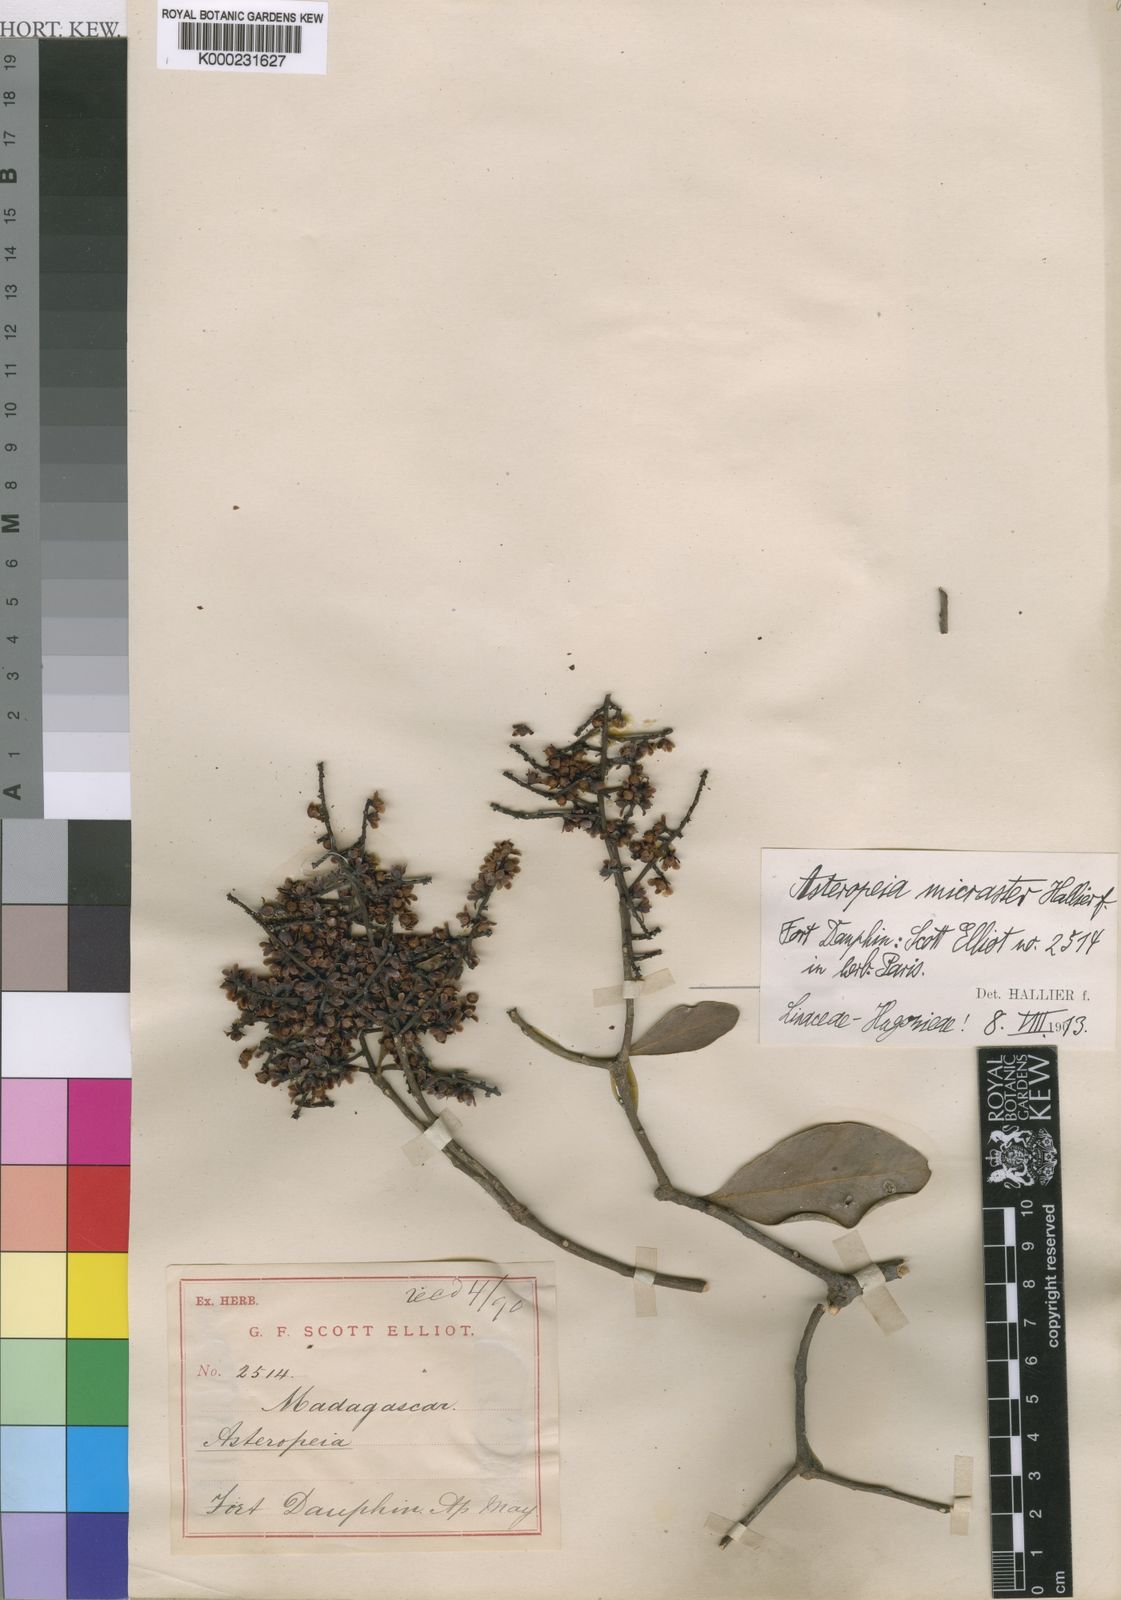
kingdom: Plantae
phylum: Tracheophyta
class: Magnoliopsida
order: Caryophyllales
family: Asteropeiaceae
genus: Asteropeia
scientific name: Asteropeia micraster
